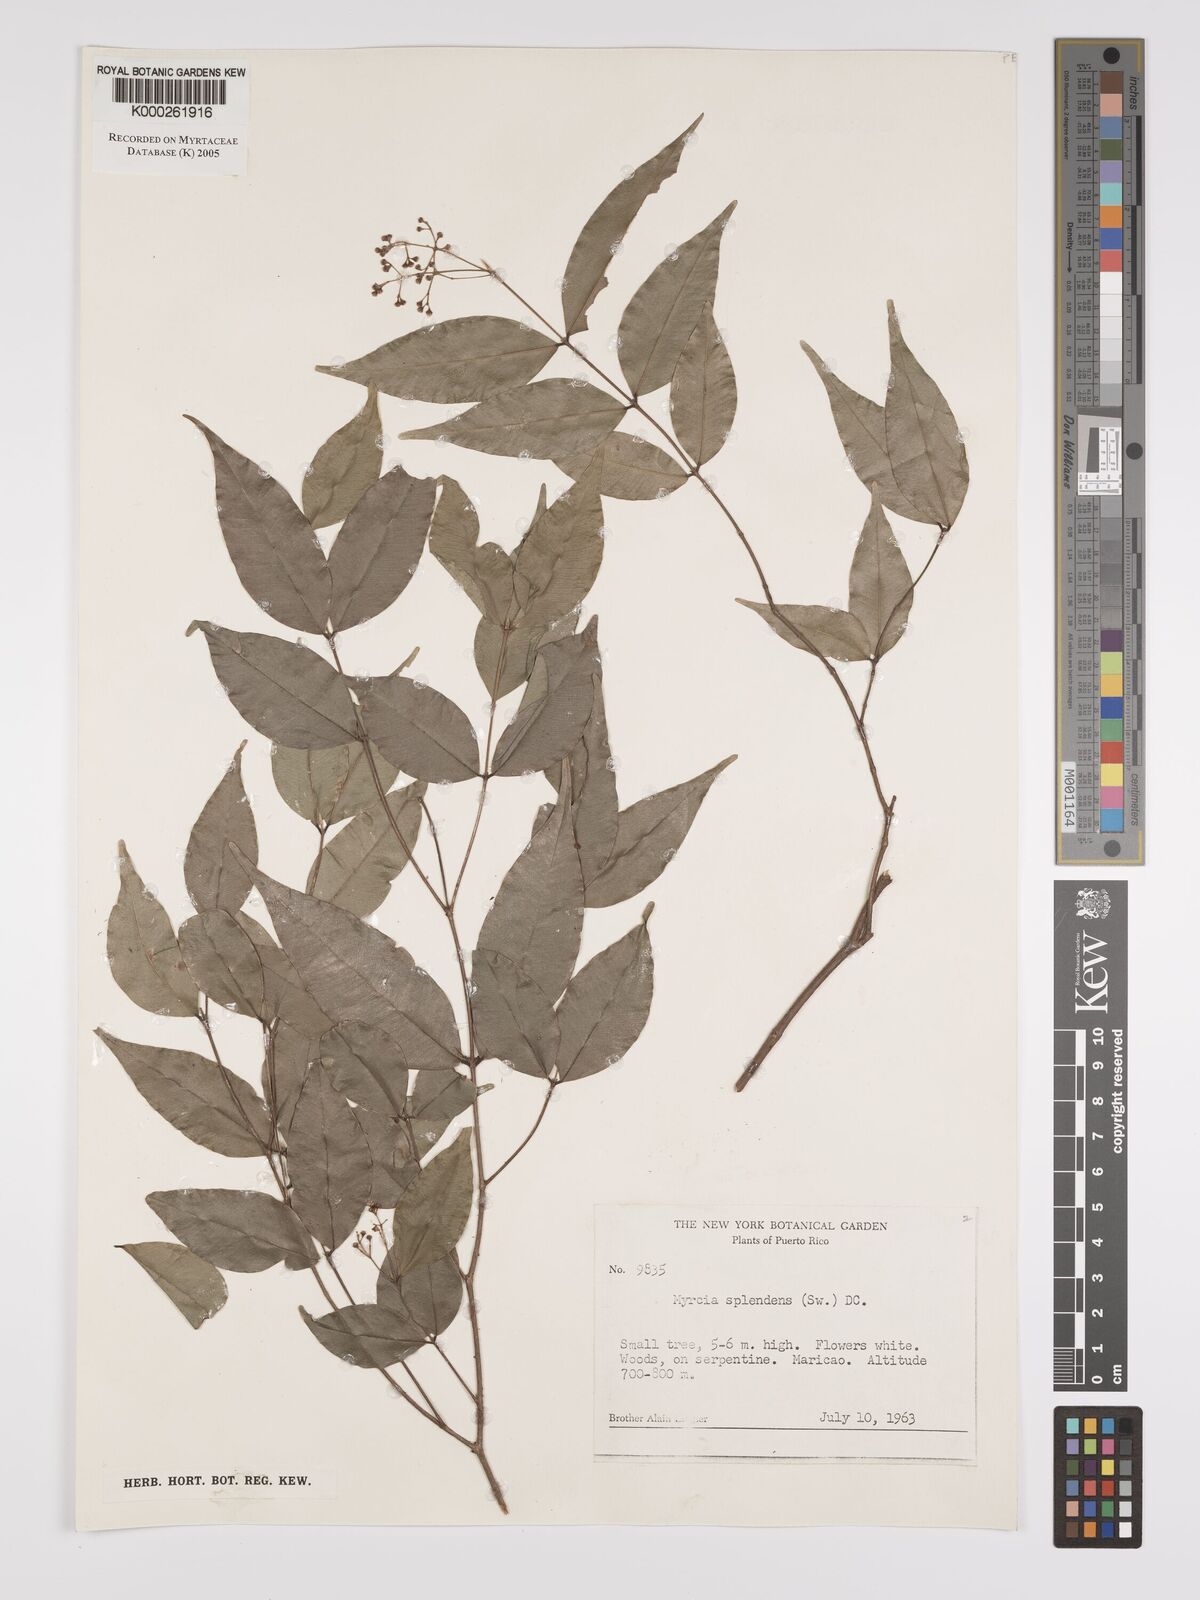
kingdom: Plantae
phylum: Tracheophyta
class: Magnoliopsida
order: Myrtales
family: Myrtaceae
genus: Myrcia
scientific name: Myrcia splendens
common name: Surinam cherry
